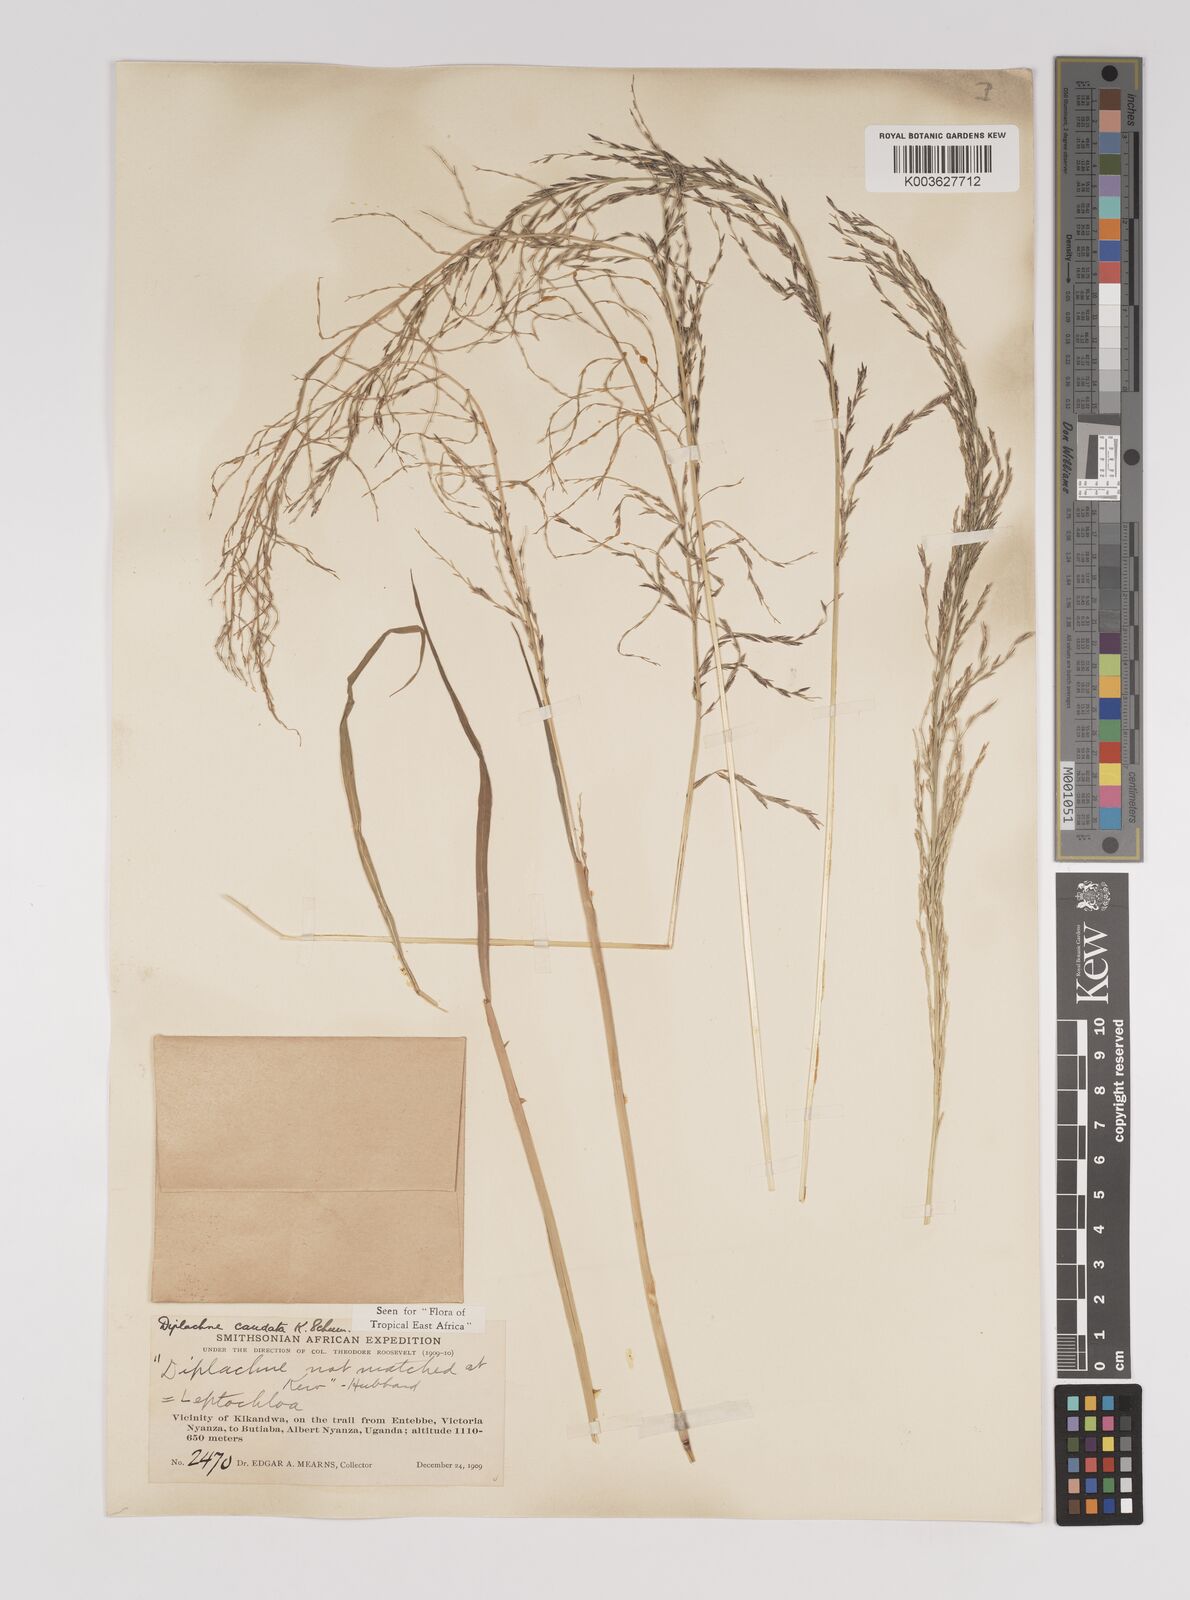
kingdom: Plantae
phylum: Tracheophyta
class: Liliopsida
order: Poales
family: Poaceae
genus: Leptochloa
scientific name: Leptochloa caudata
